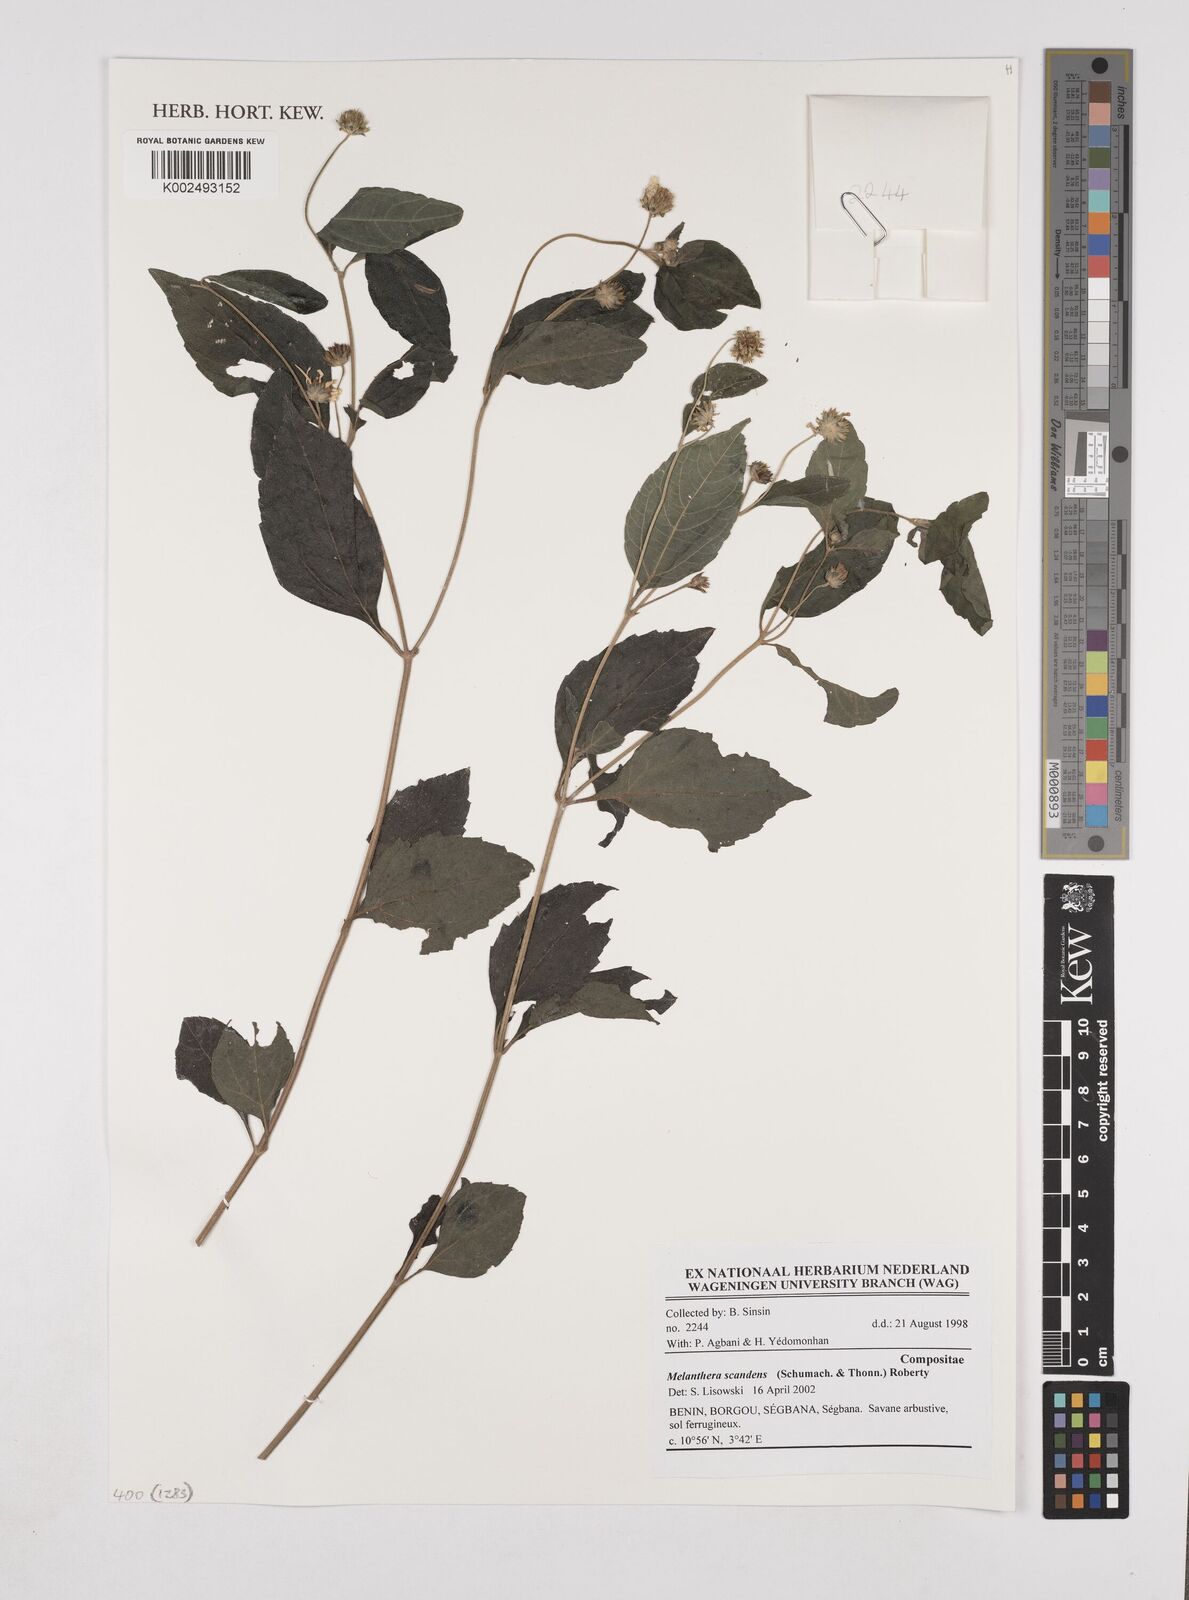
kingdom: Plantae
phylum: Tracheophyta
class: Magnoliopsida
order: Asterales
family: Asteraceae
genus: Lipotriche
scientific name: Lipotriche scandens
